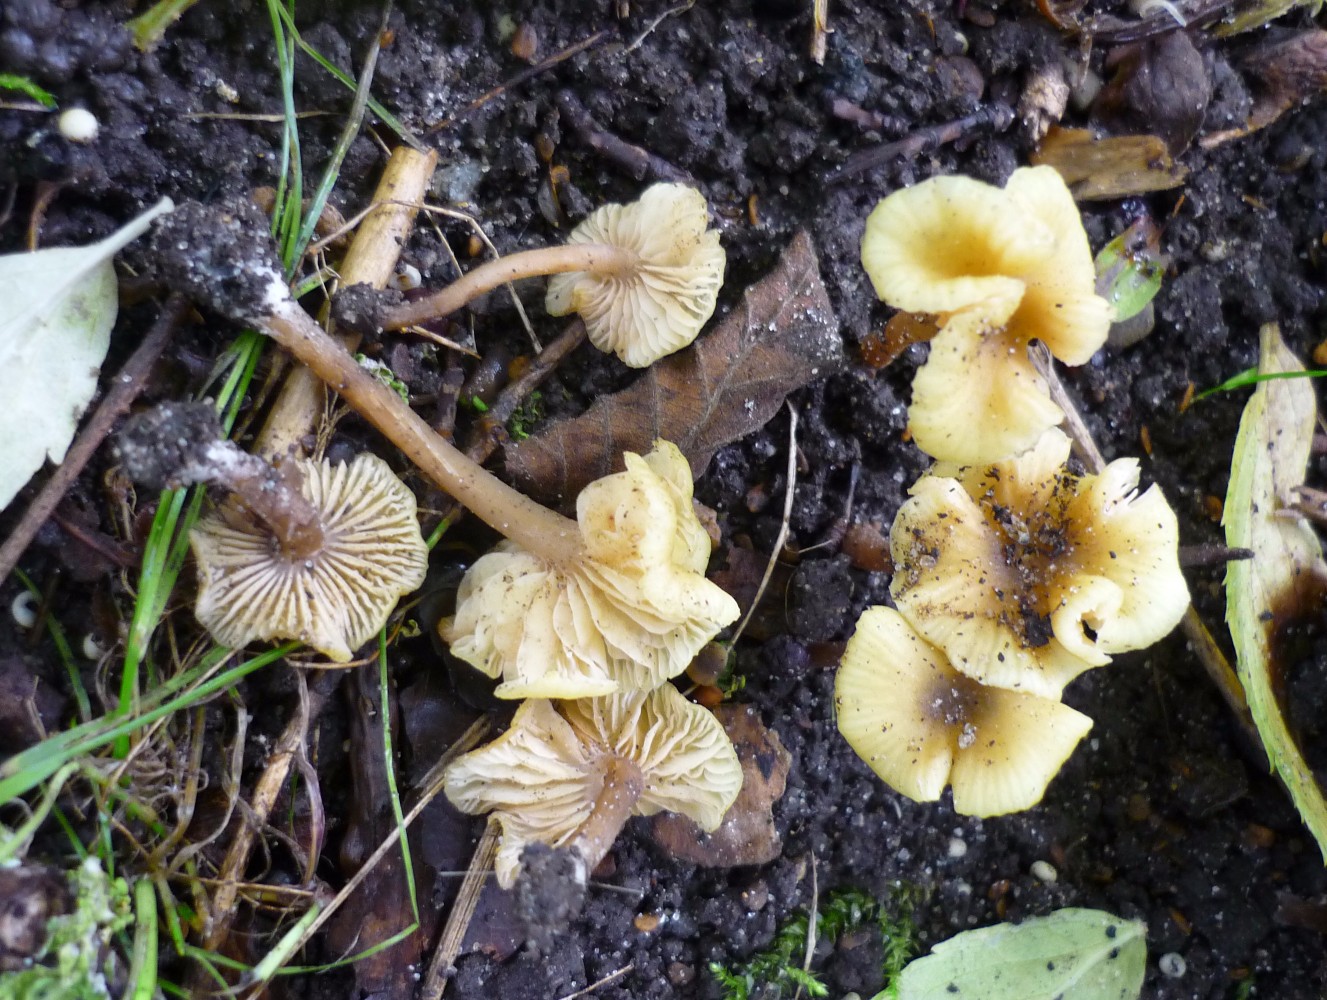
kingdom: Fungi
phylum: Basidiomycota
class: Agaricomycetes
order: Agaricales
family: Entolomataceae
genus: Entoloma
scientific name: Entoloma pleopodium
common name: duftende rødblad
